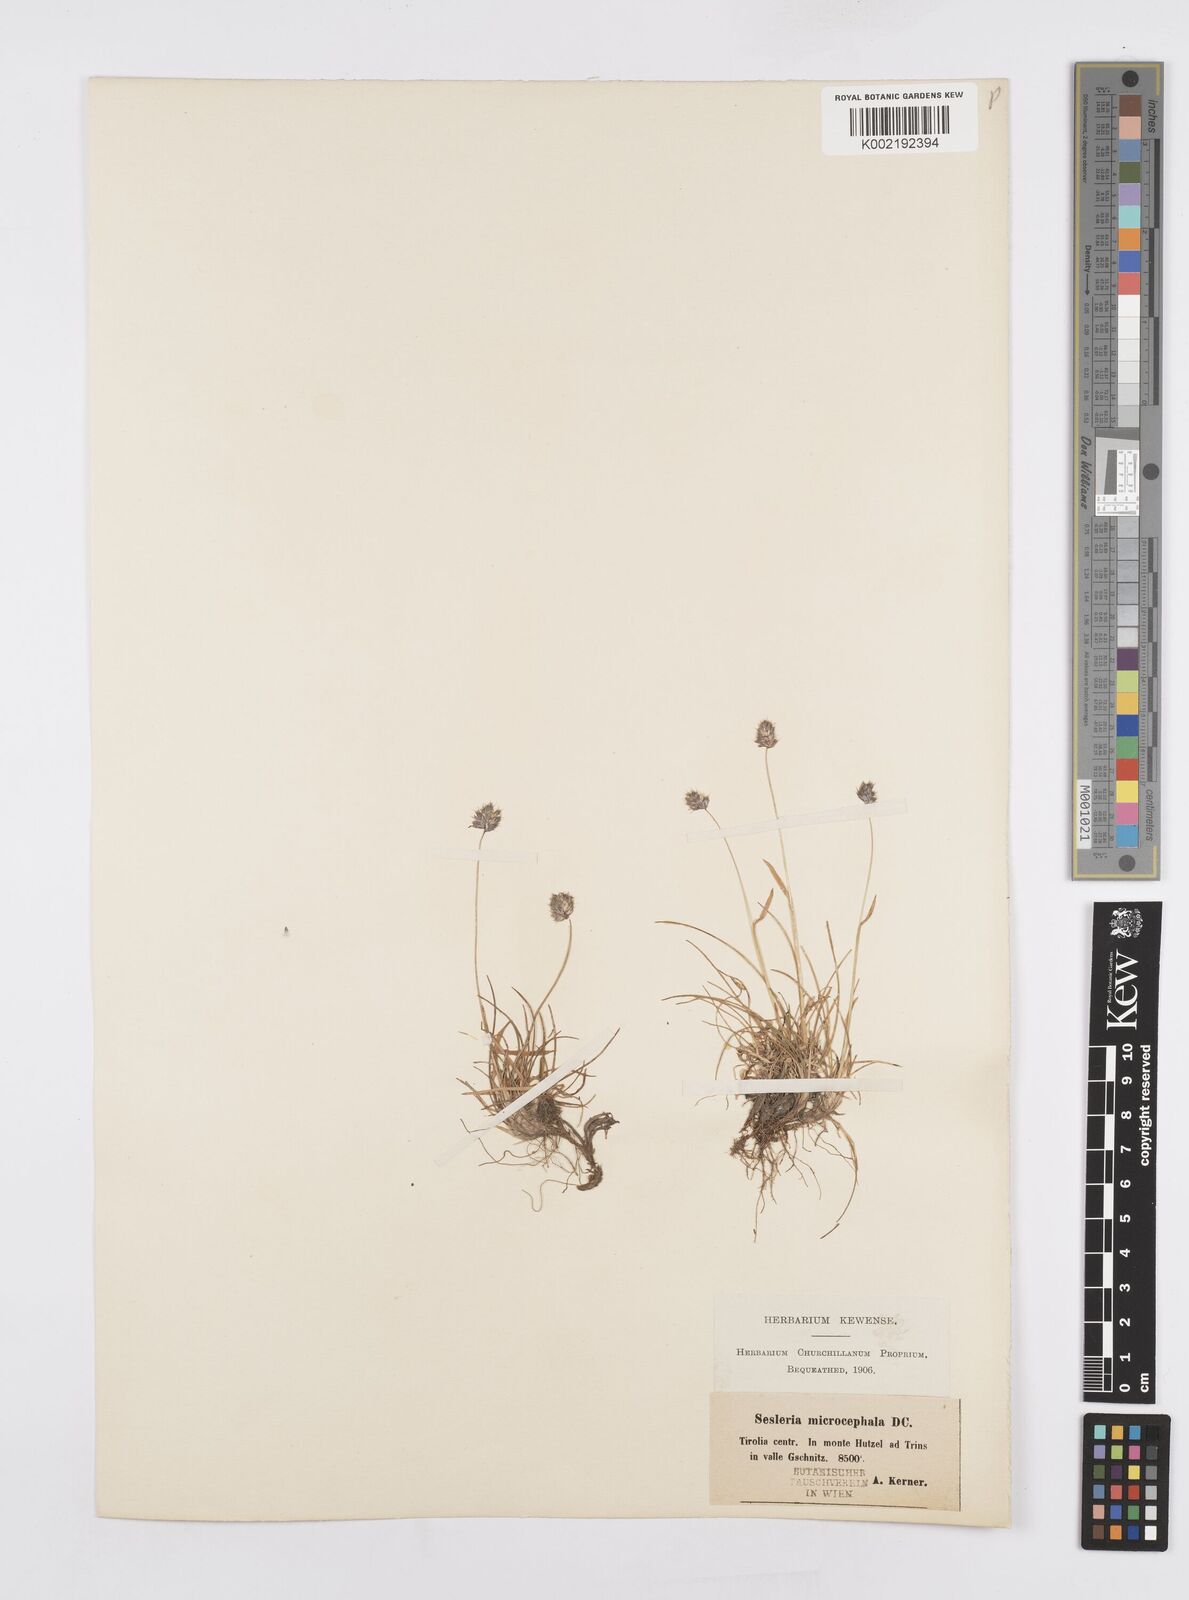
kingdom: Plantae
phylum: Tracheophyta
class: Liliopsida
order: Poales
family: Poaceae
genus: Psilathera
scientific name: Psilathera ovata
